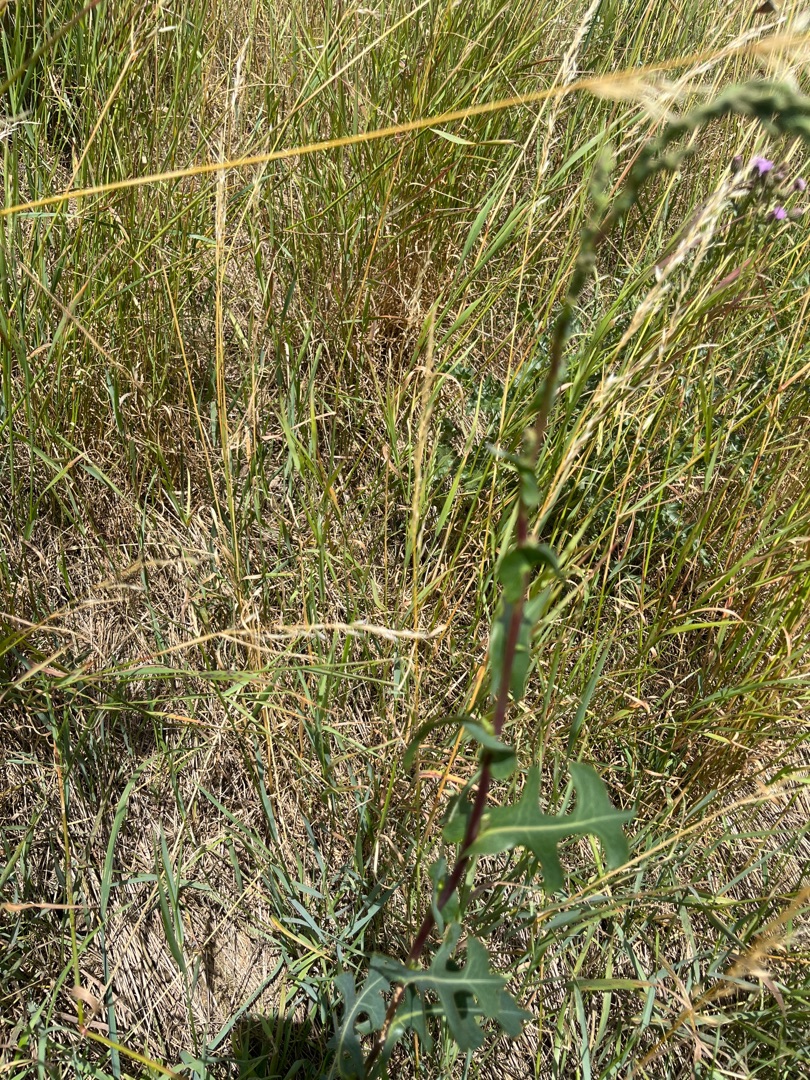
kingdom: Plantae
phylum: Tracheophyta
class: Magnoliopsida
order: Asterales
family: Asteraceae
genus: Lactuca
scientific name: Lactuca serriola
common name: Tornet salat
